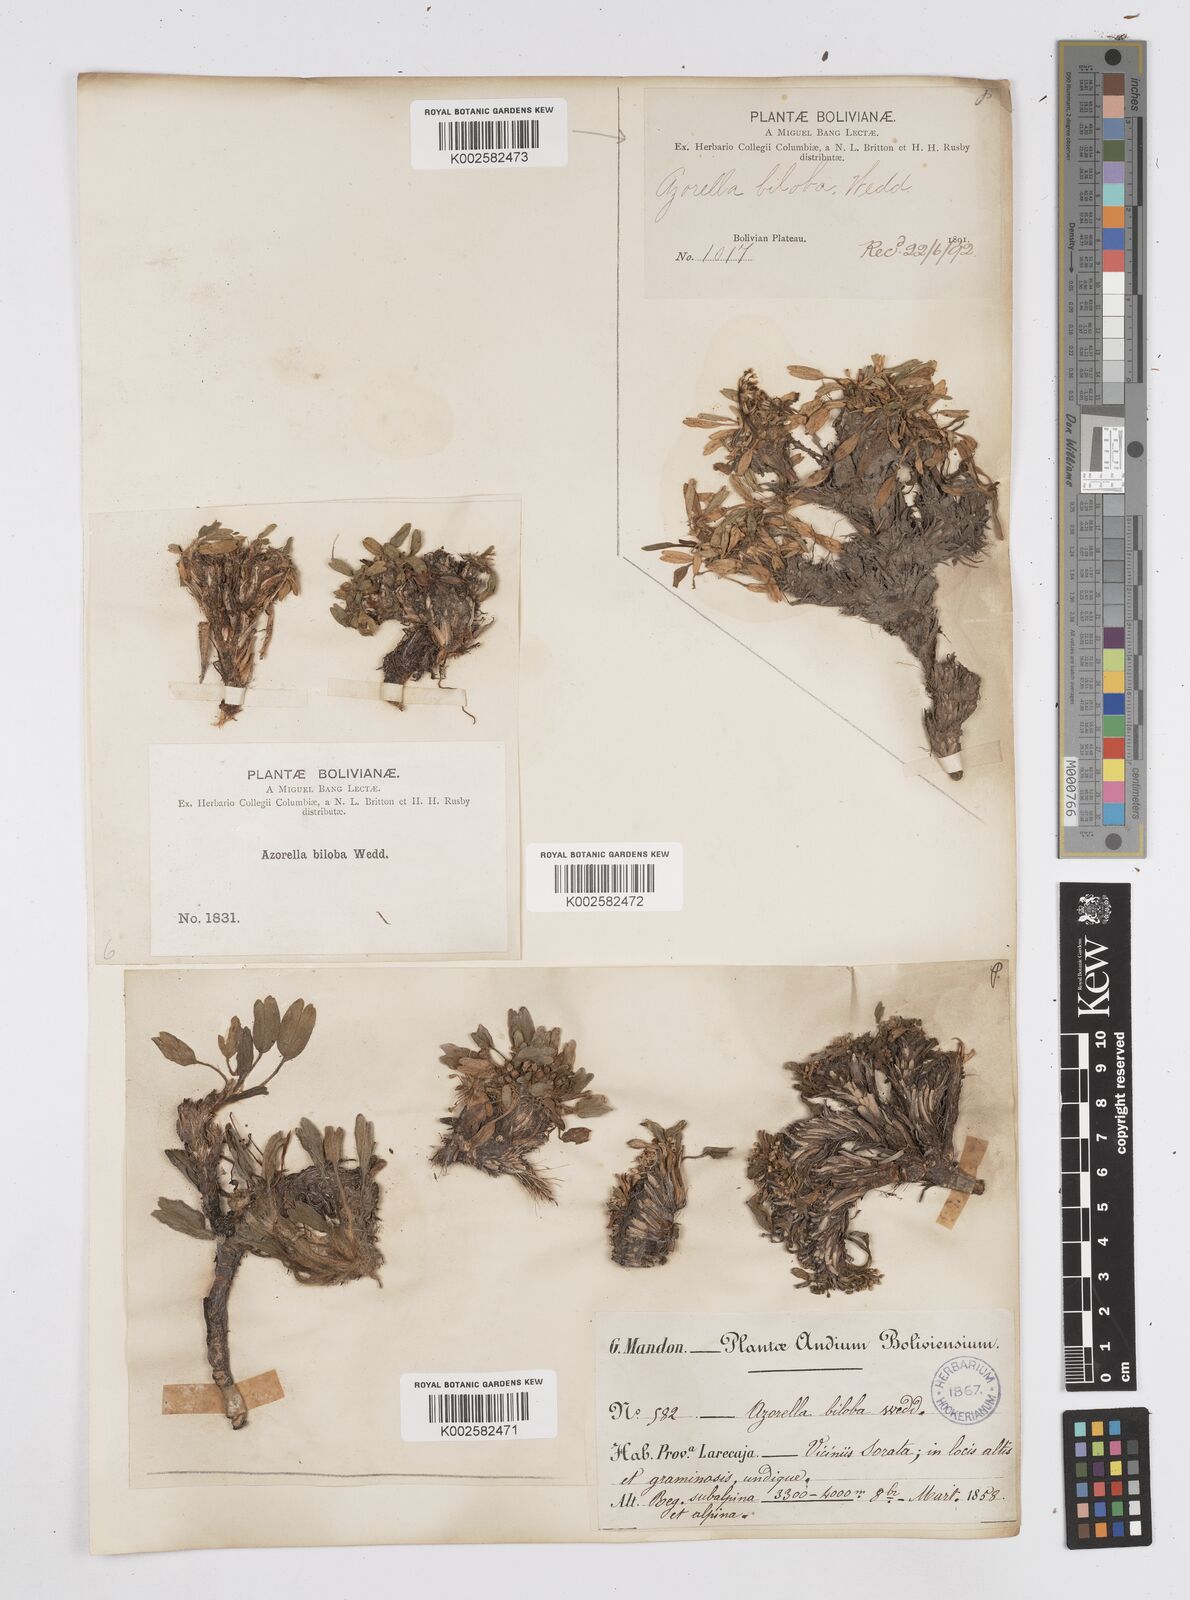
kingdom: Plantae
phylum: Tracheophyta
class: Magnoliopsida
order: Apiales
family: Apiaceae
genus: Azorella
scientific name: Azorella biloba
